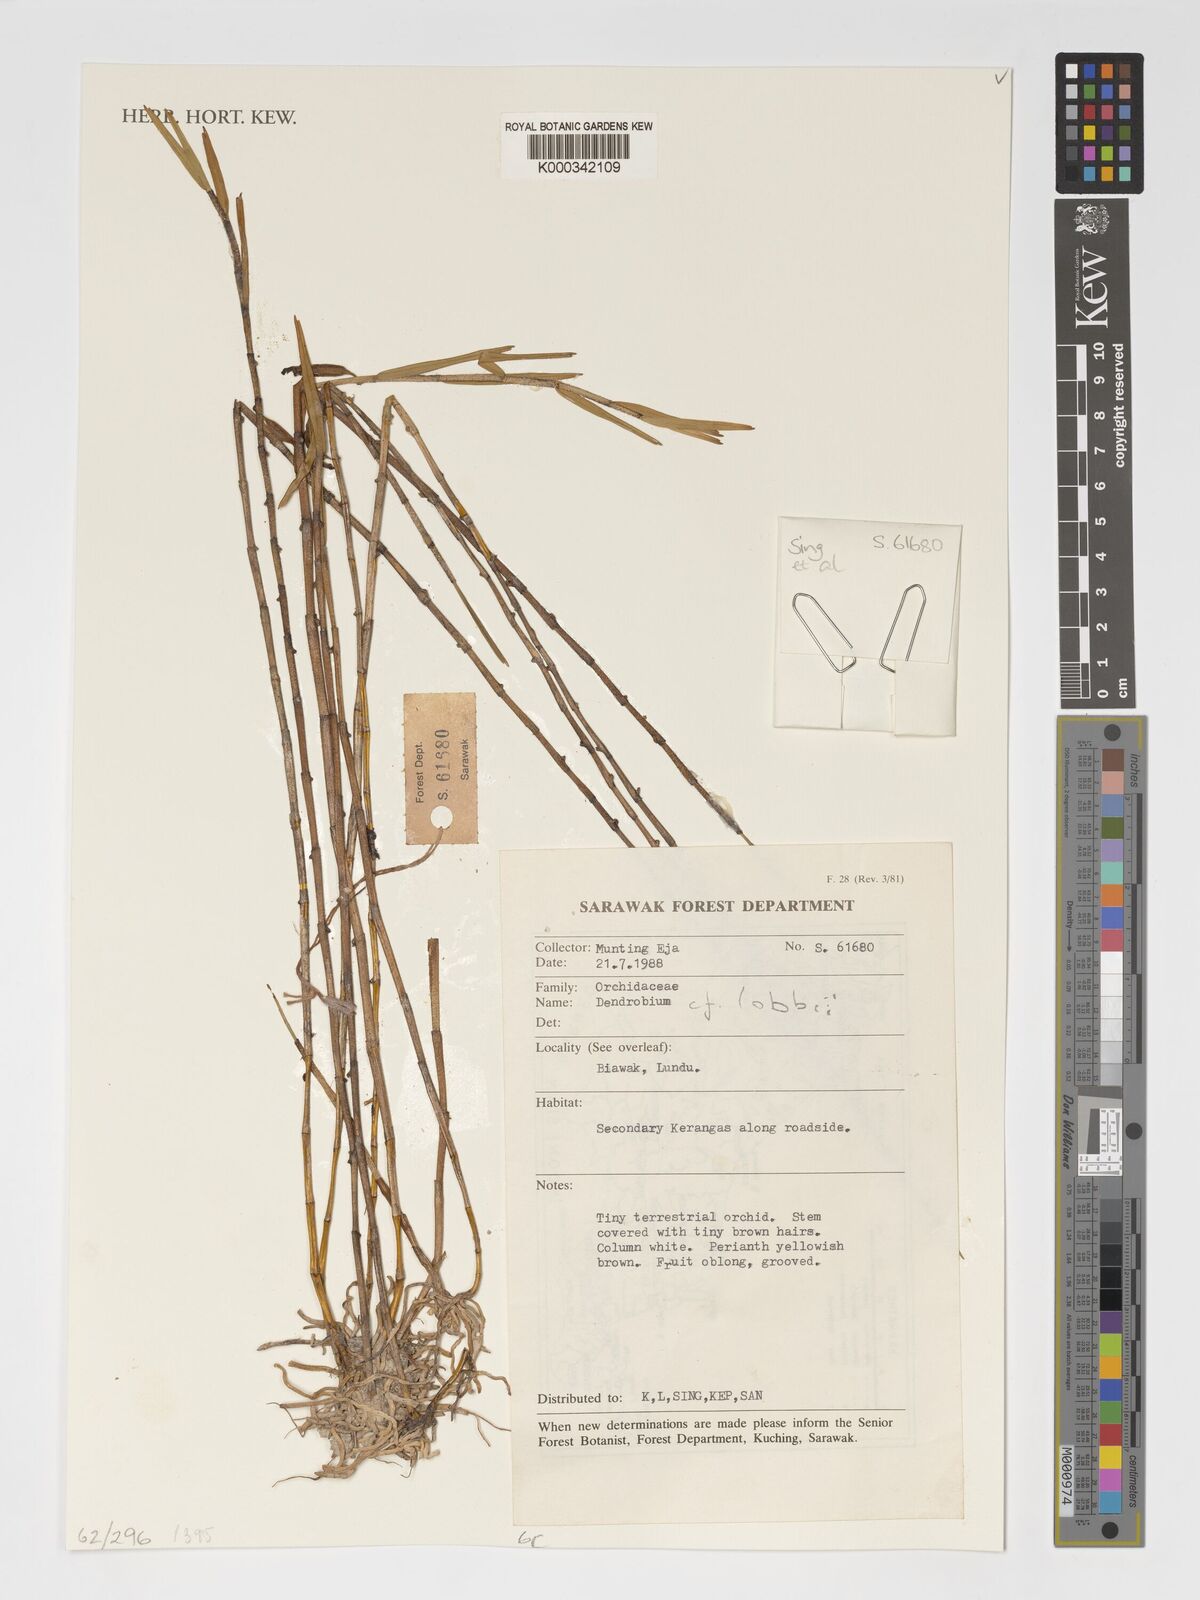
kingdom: Plantae
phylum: Tracheophyta
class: Liliopsida
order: Asparagales
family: Orchidaceae
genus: Dendrobium
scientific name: Dendrobium
